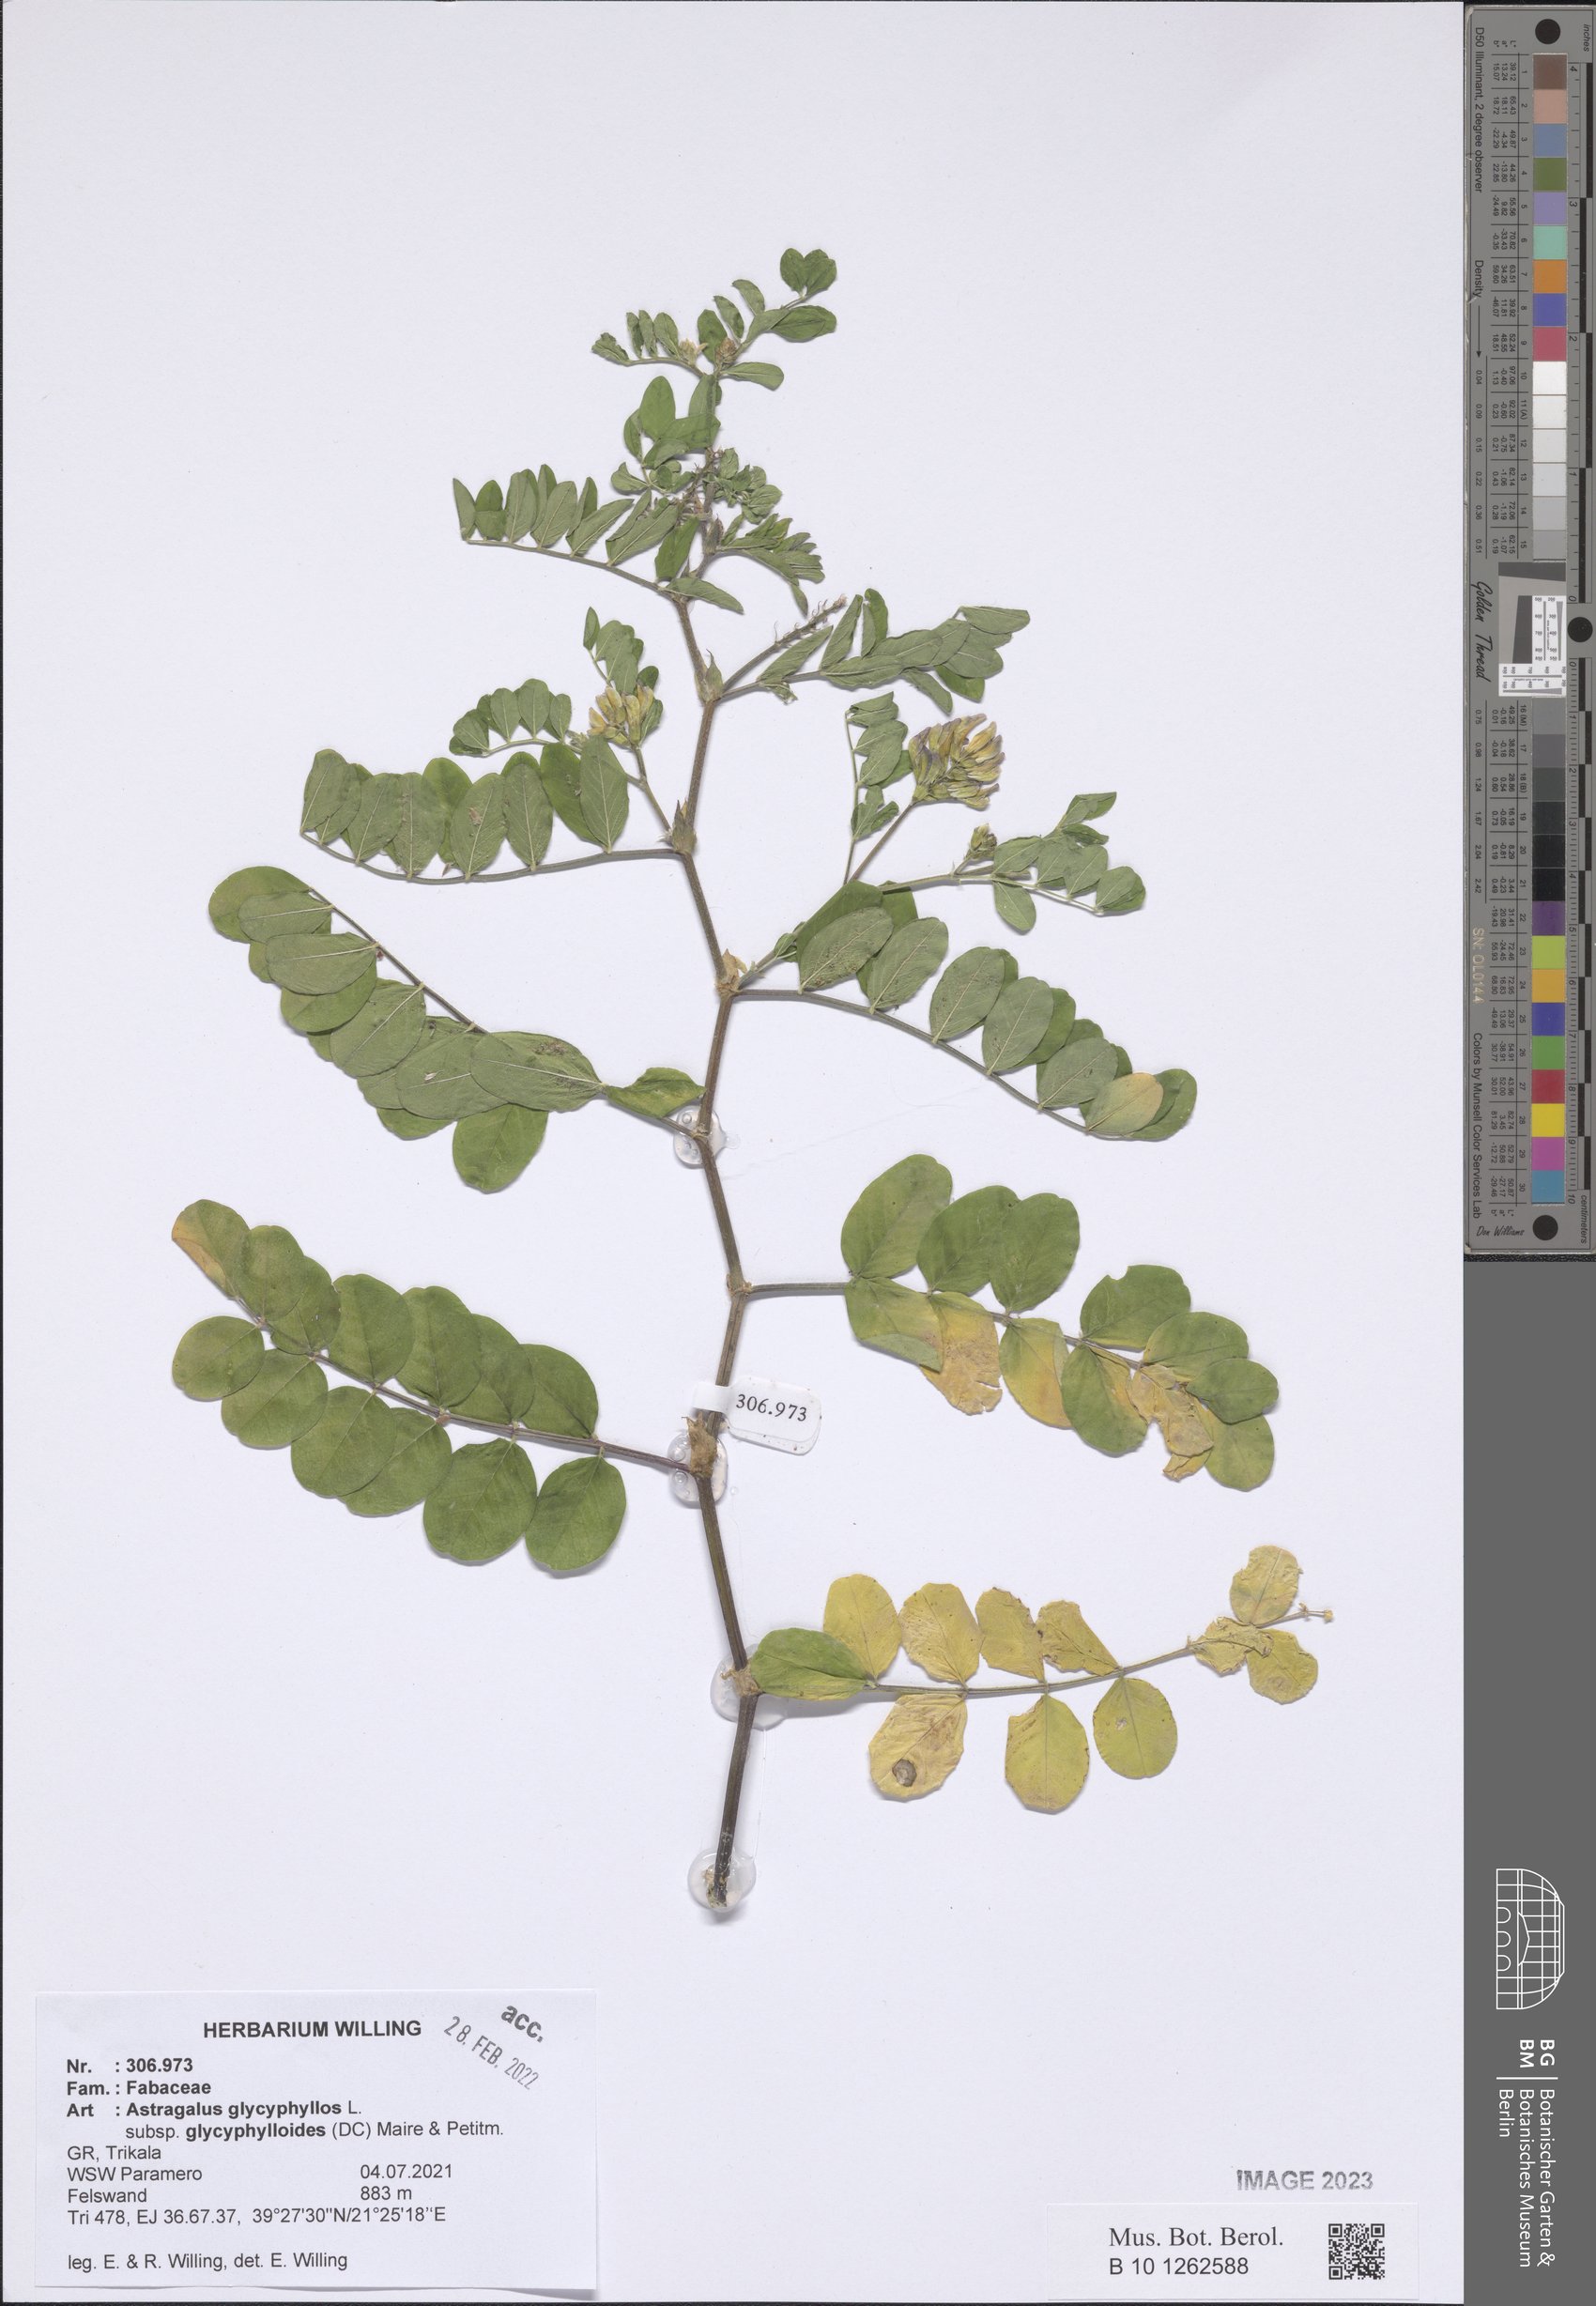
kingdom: Plantae
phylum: Tracheophyta
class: Magnoliopsida
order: Fabales
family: Fabaceae
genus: Astragalus
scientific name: Astragalus glycyphylloides
